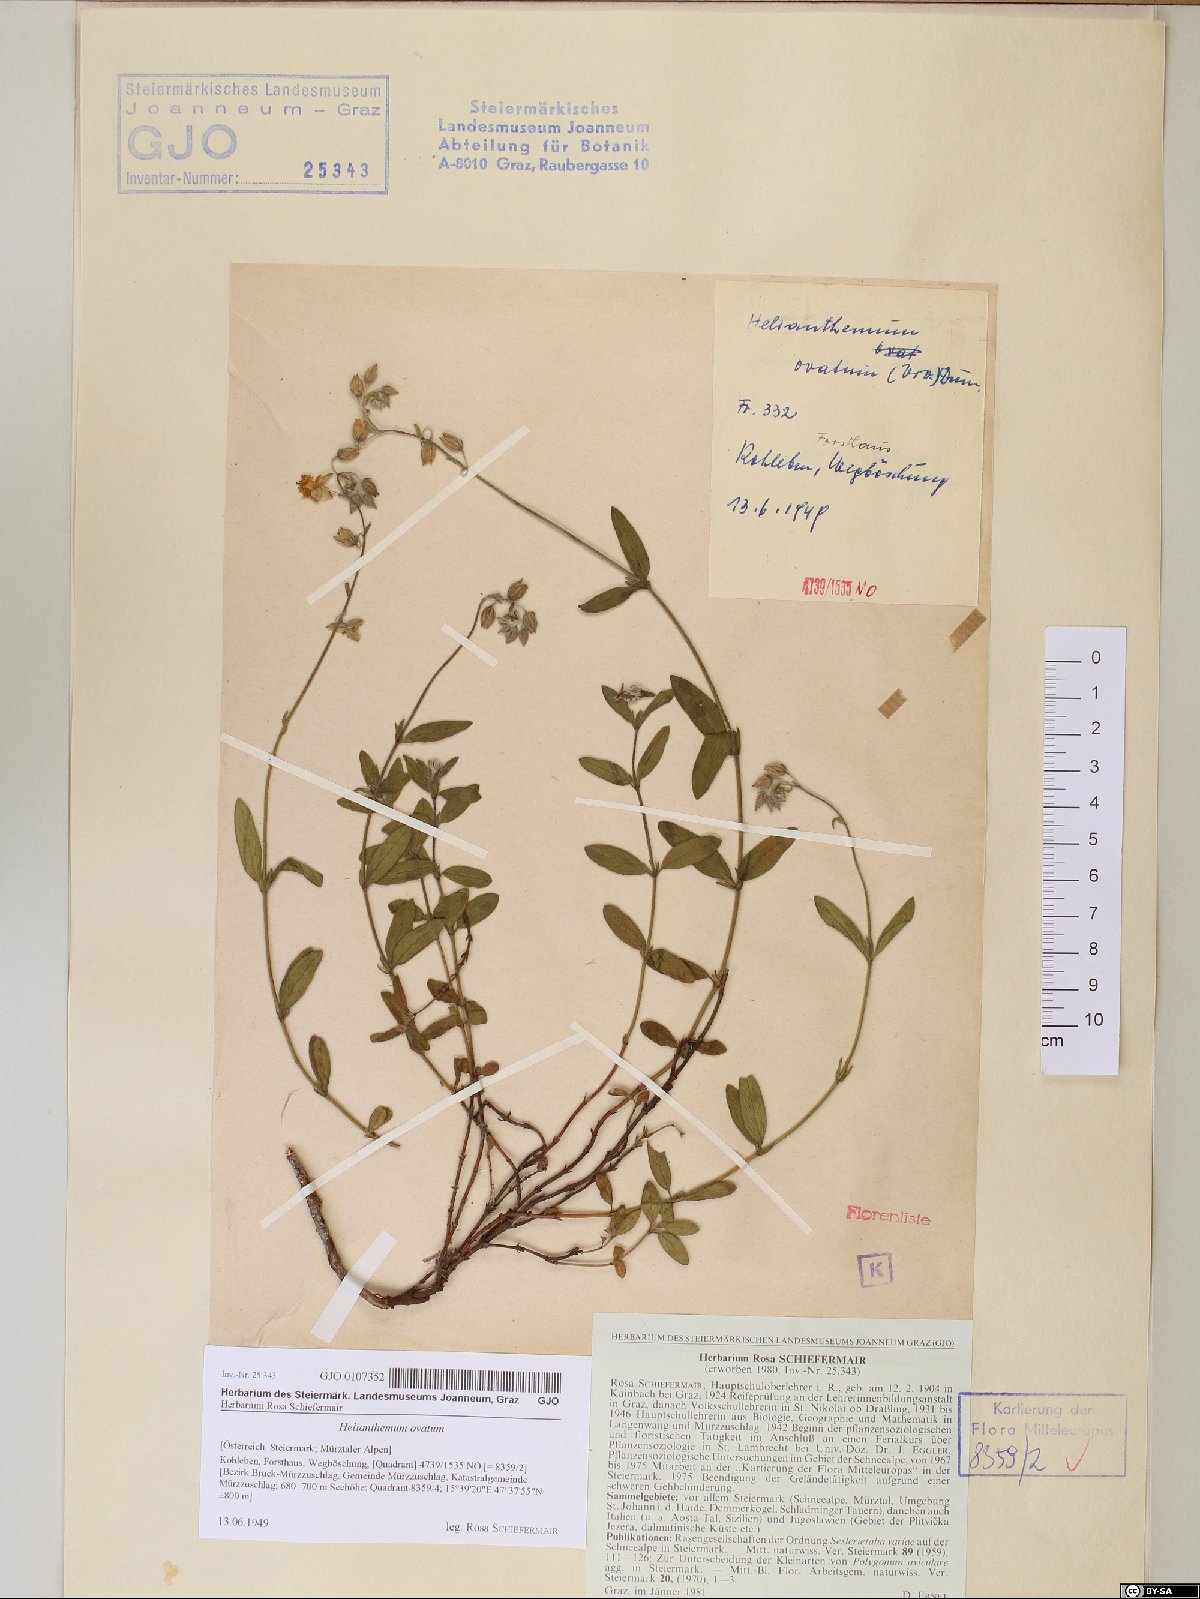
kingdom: Plantae
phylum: Tracheophyta
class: Magnoliopsida
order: Malvales
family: Cistaceae
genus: Helianthemum
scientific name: Helianthemum nummularium
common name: Common rock-rose
